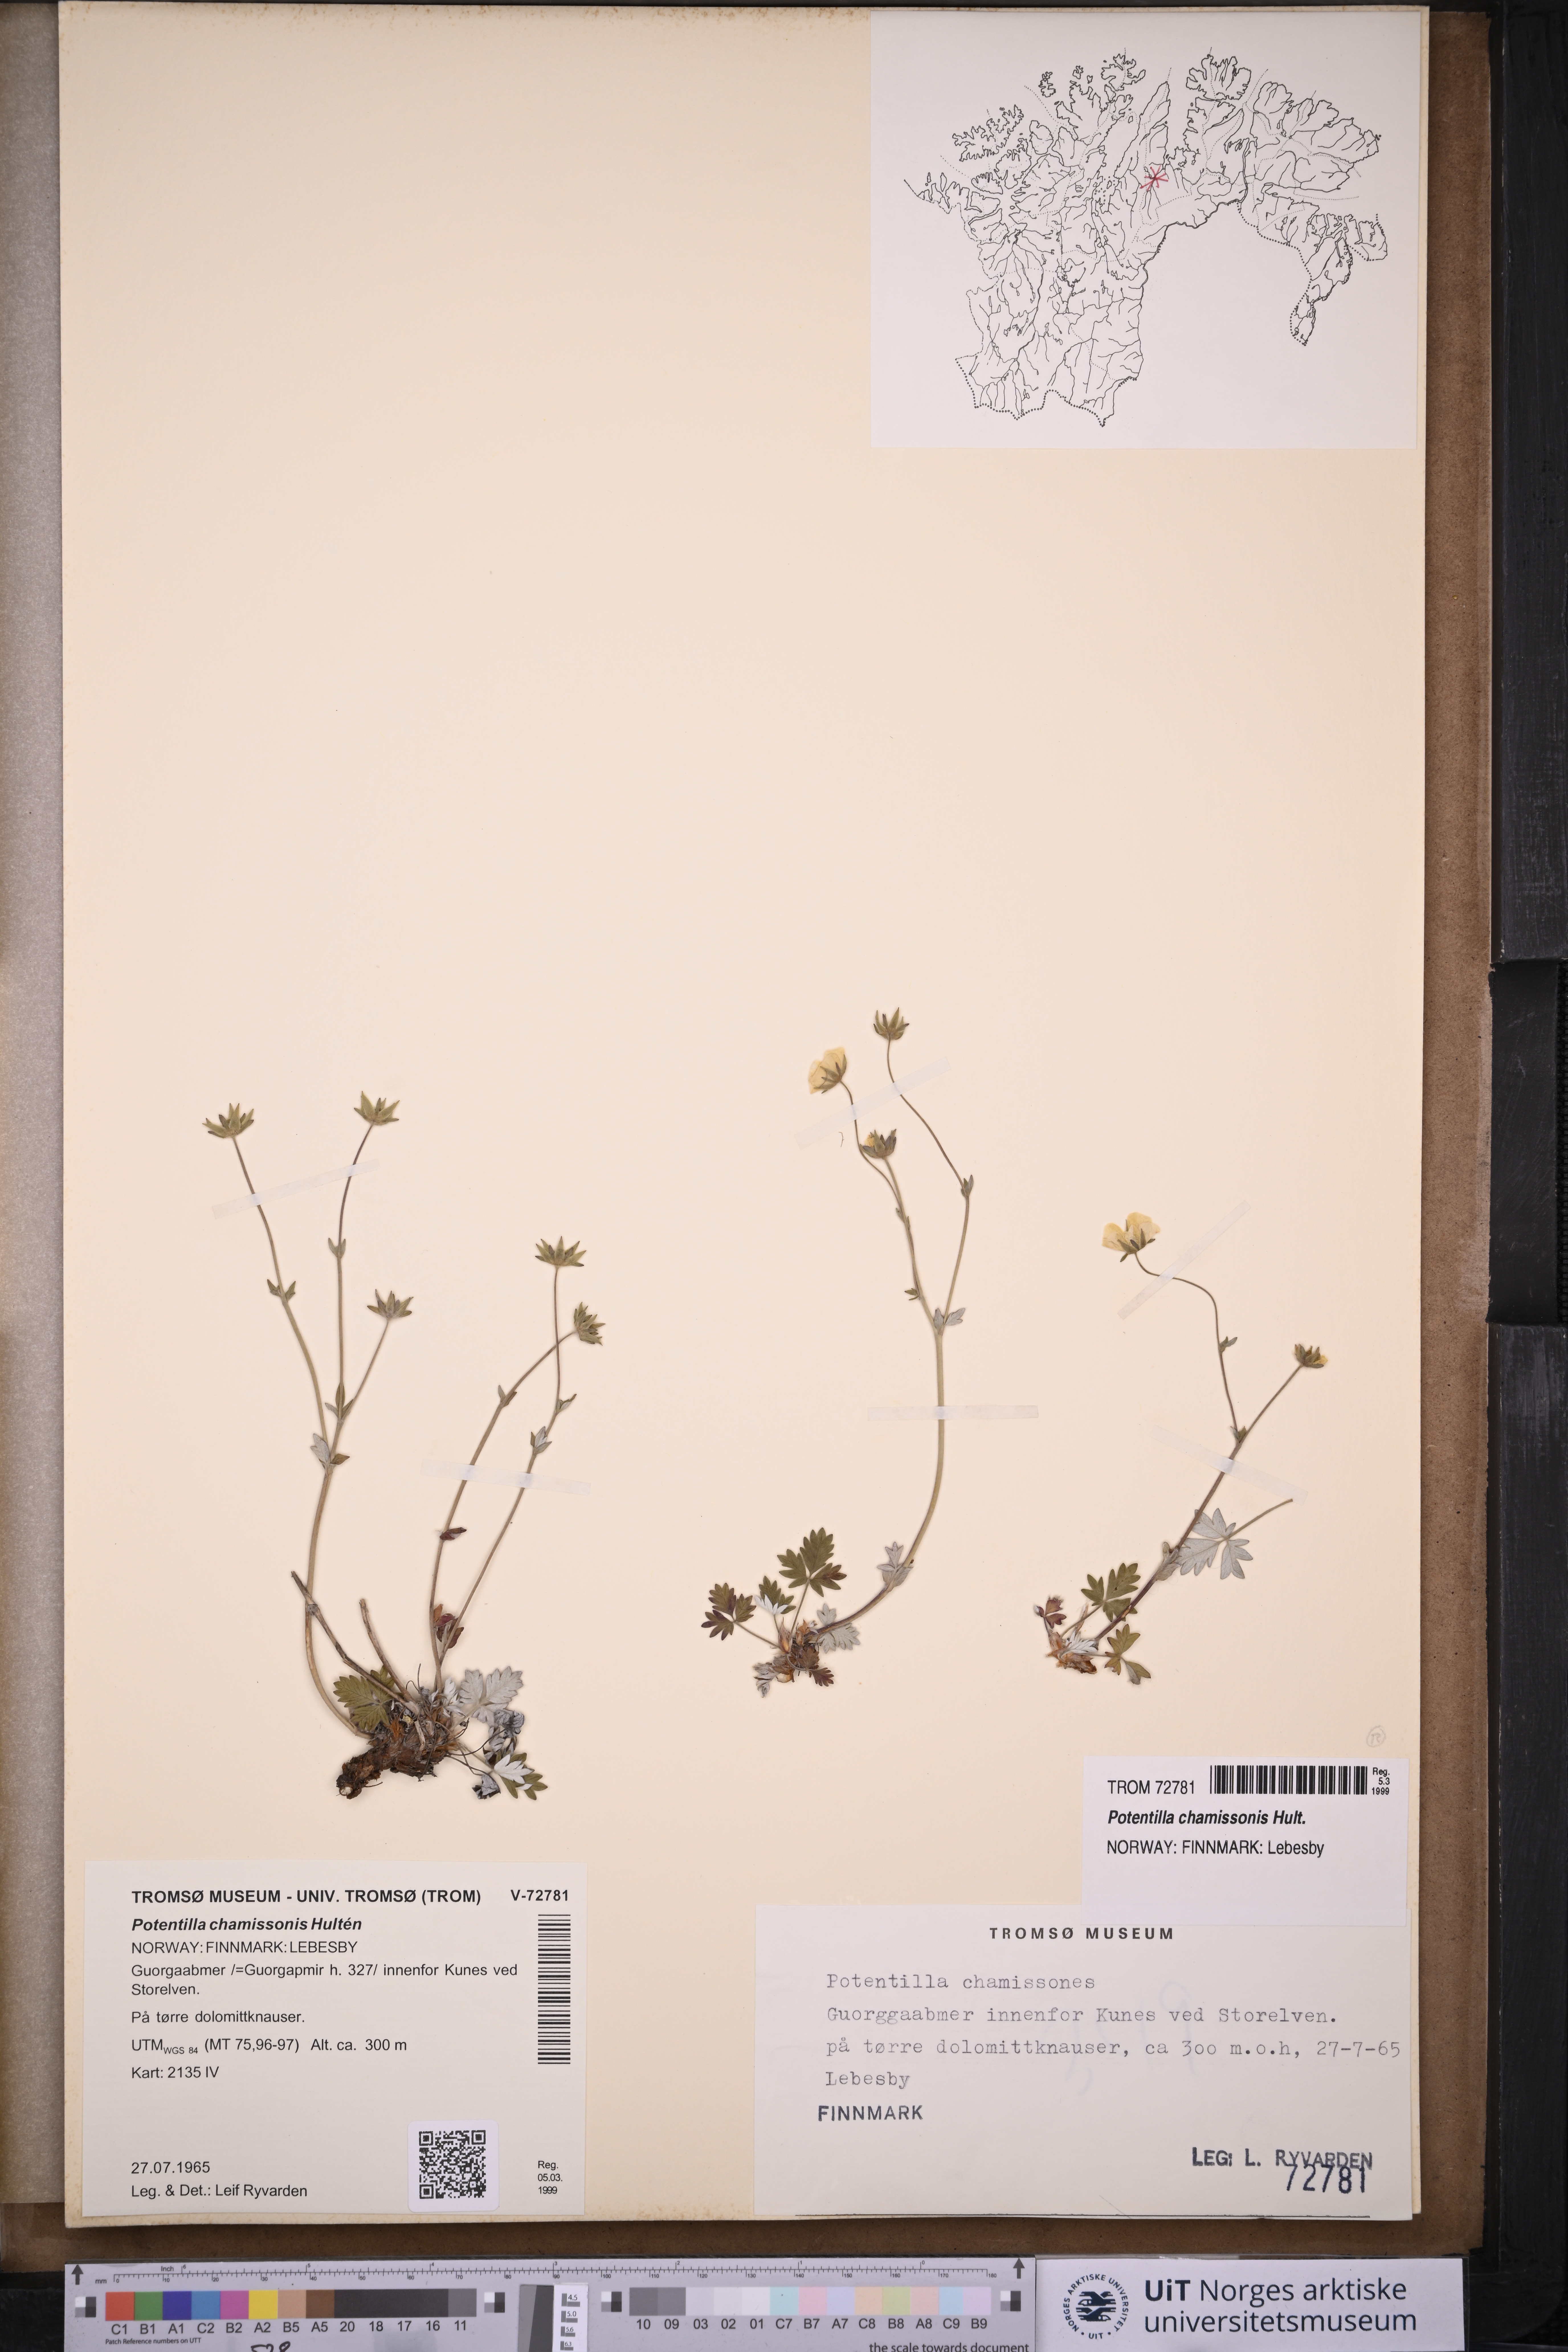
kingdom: Plantae
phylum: Tracheophyta
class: Magnoliopsida
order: Rosales
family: Rosaceae
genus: Potentilla
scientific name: Potentilla chamissonis
